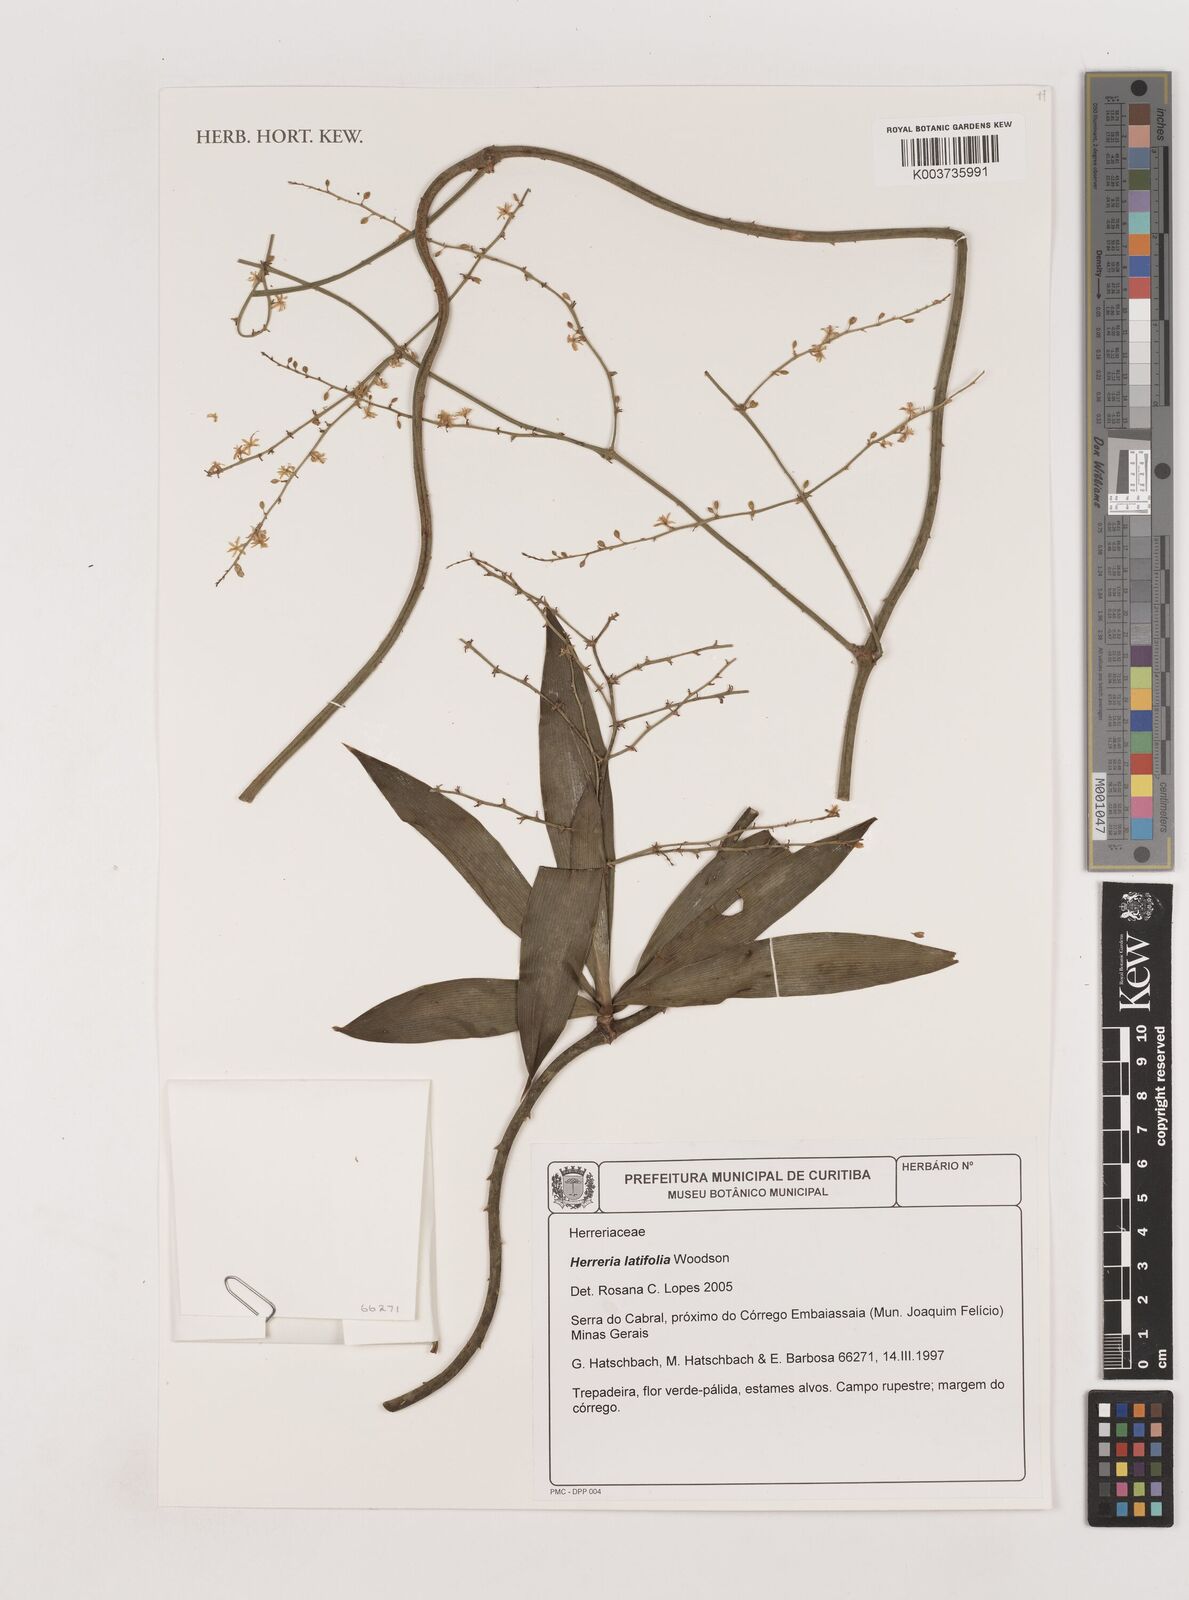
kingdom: Plantae
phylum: Tracheophyta
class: Liliopsida
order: Asparagales
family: Asparagaceae
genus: Herreria
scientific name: Herreria latifolia
